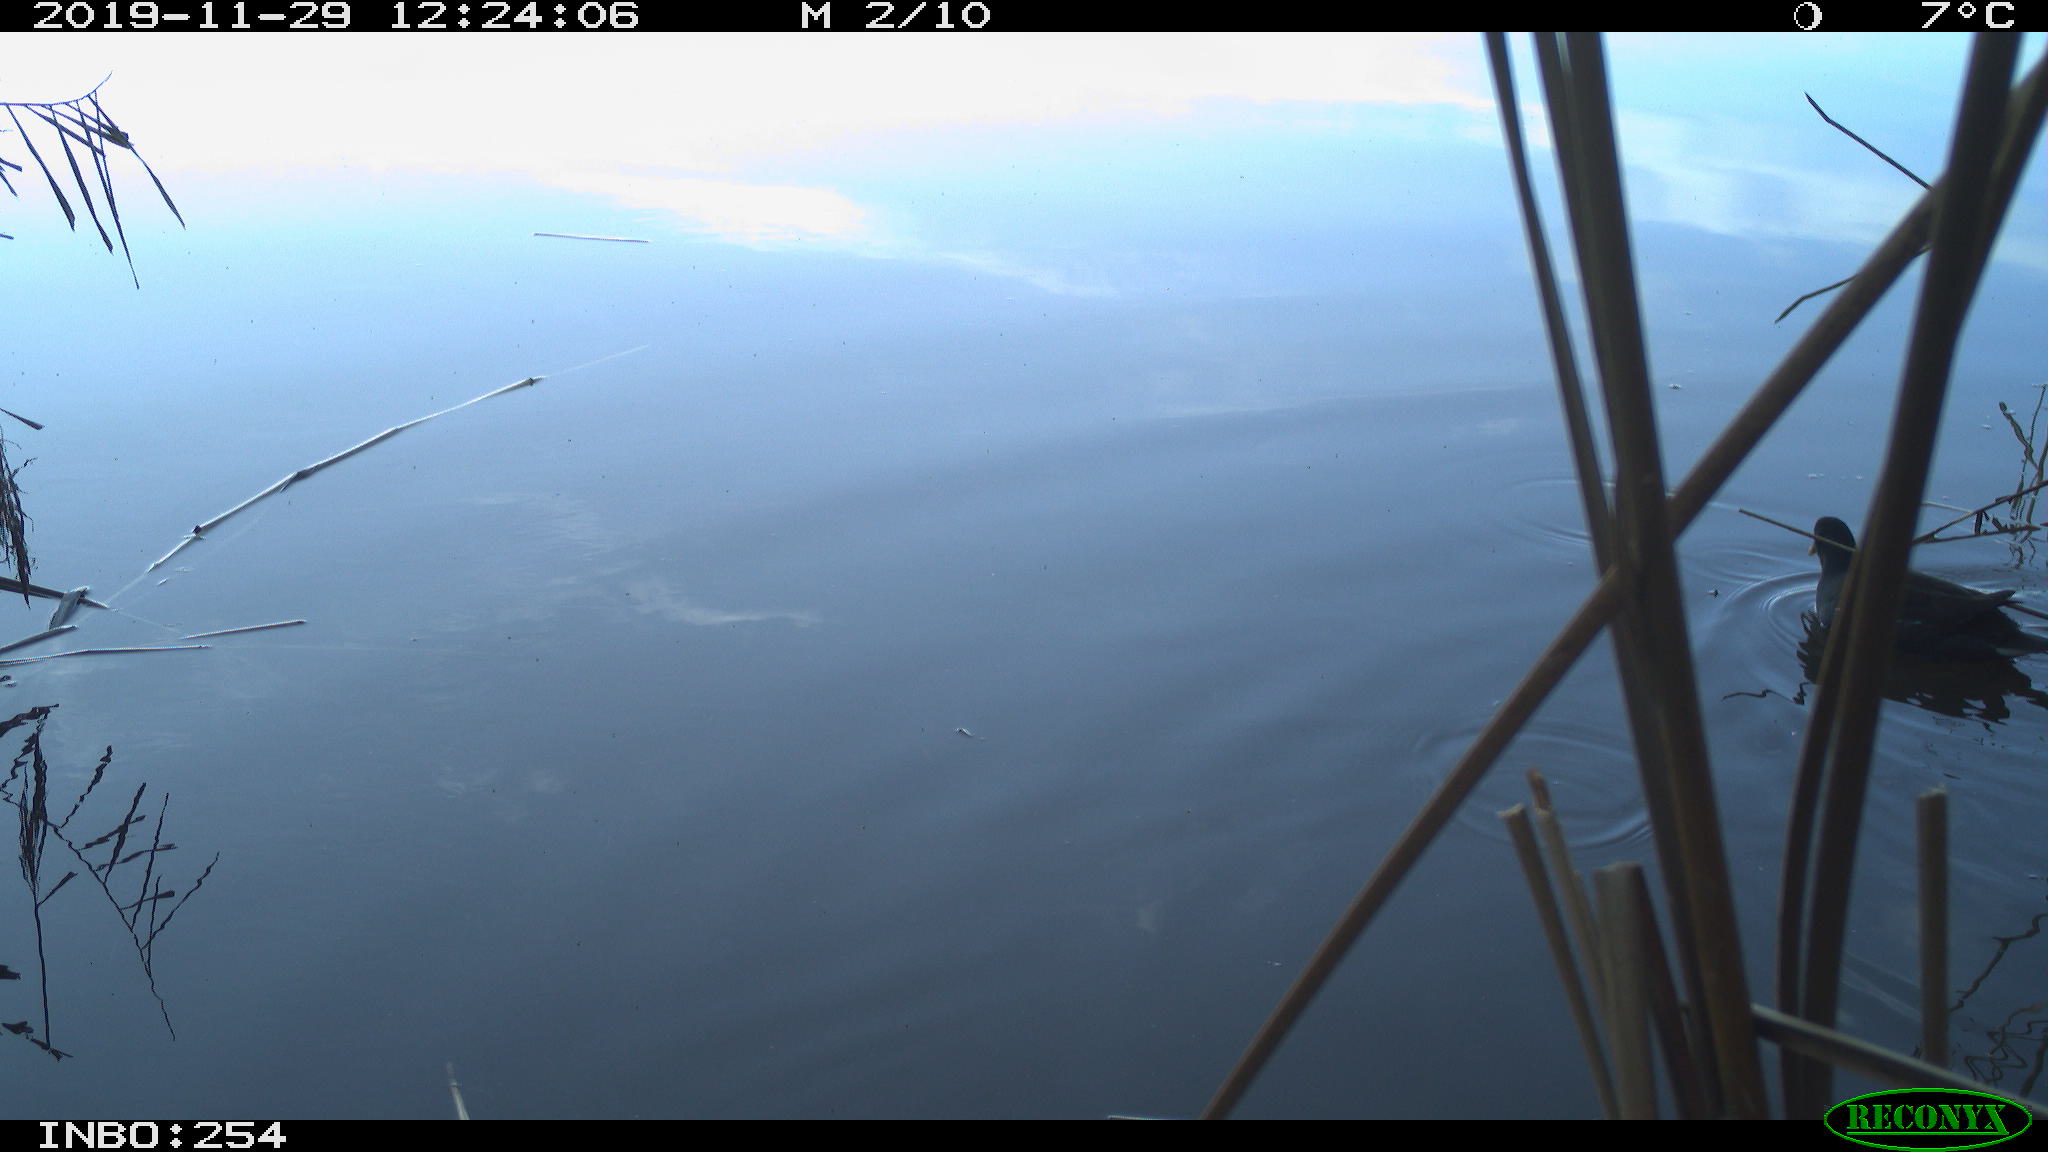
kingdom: Animalia
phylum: Chordata
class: Aves
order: Gruiformes
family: Rallidae
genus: Gallinula
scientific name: Gallinula chloropus
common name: Common moorhen
